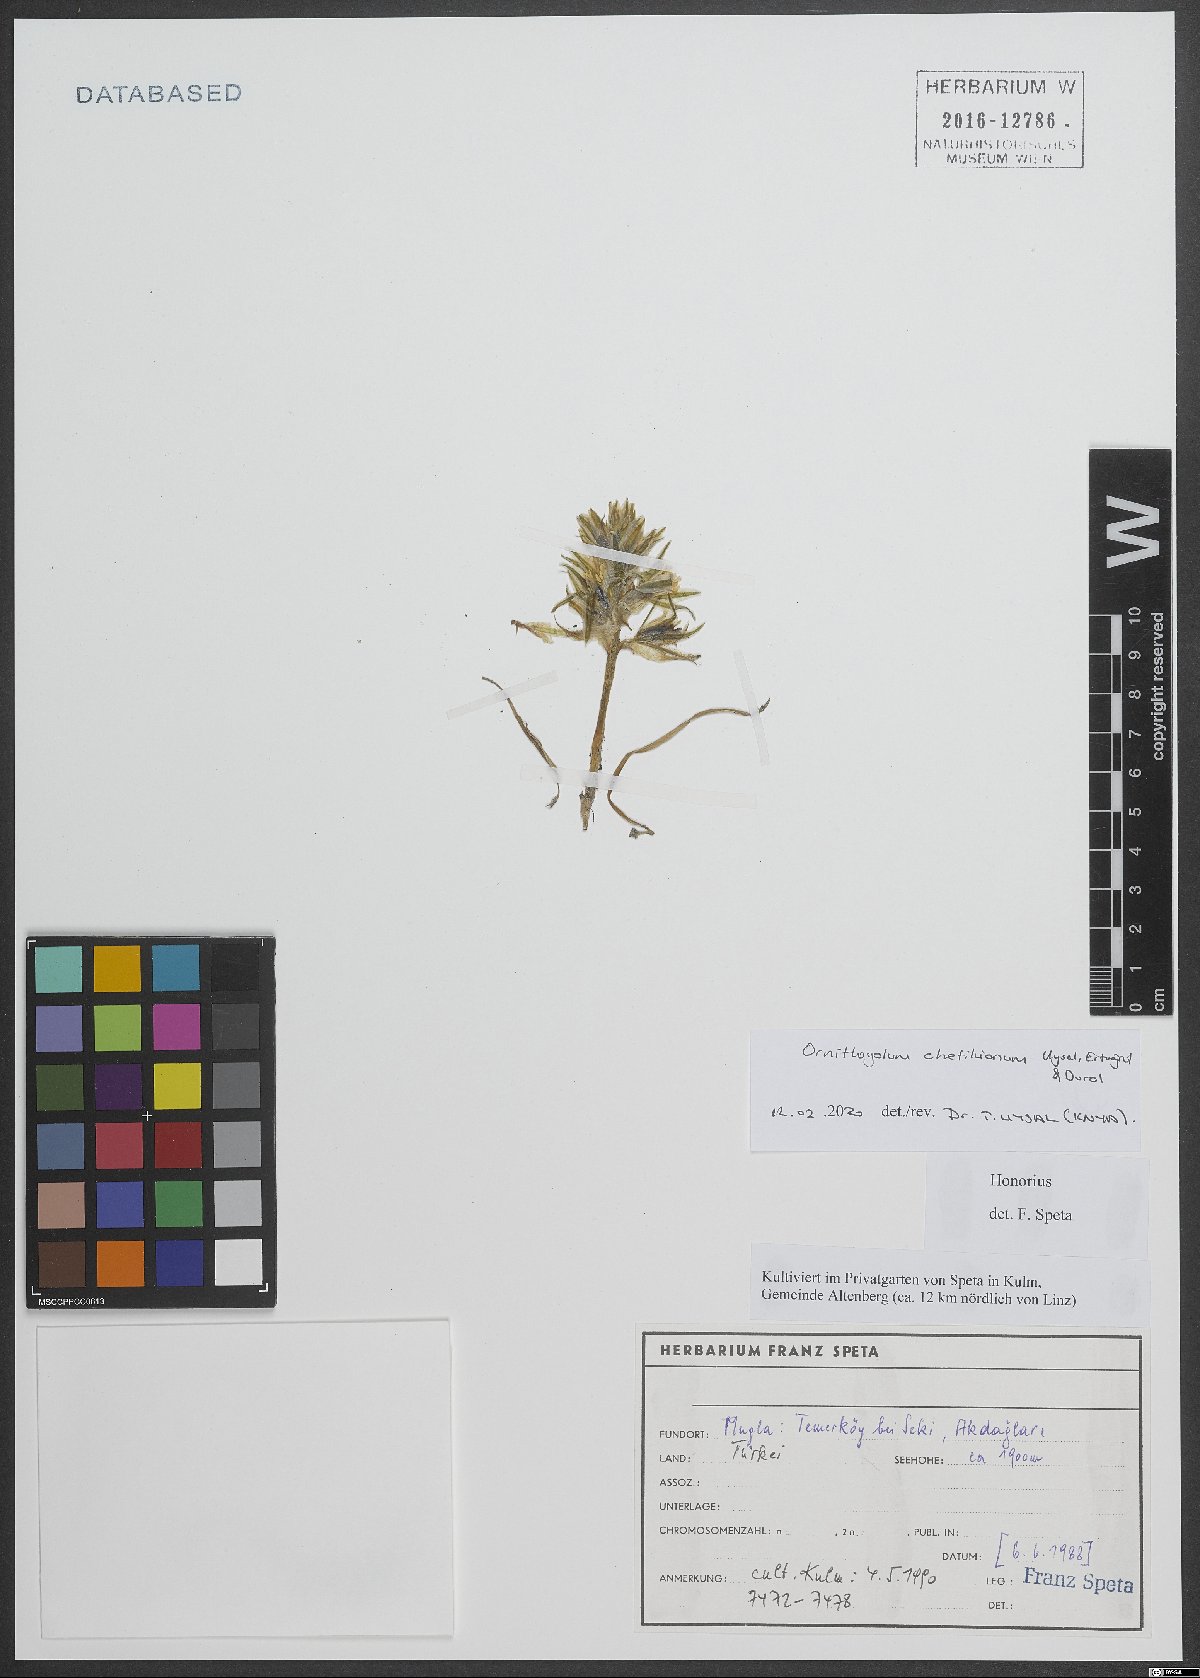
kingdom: Plantae
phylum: Tracheophyta
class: Liliopsida
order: Asparagales
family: Asparagaceae
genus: Ornithogalum
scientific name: Ornithogalum chetikianum
